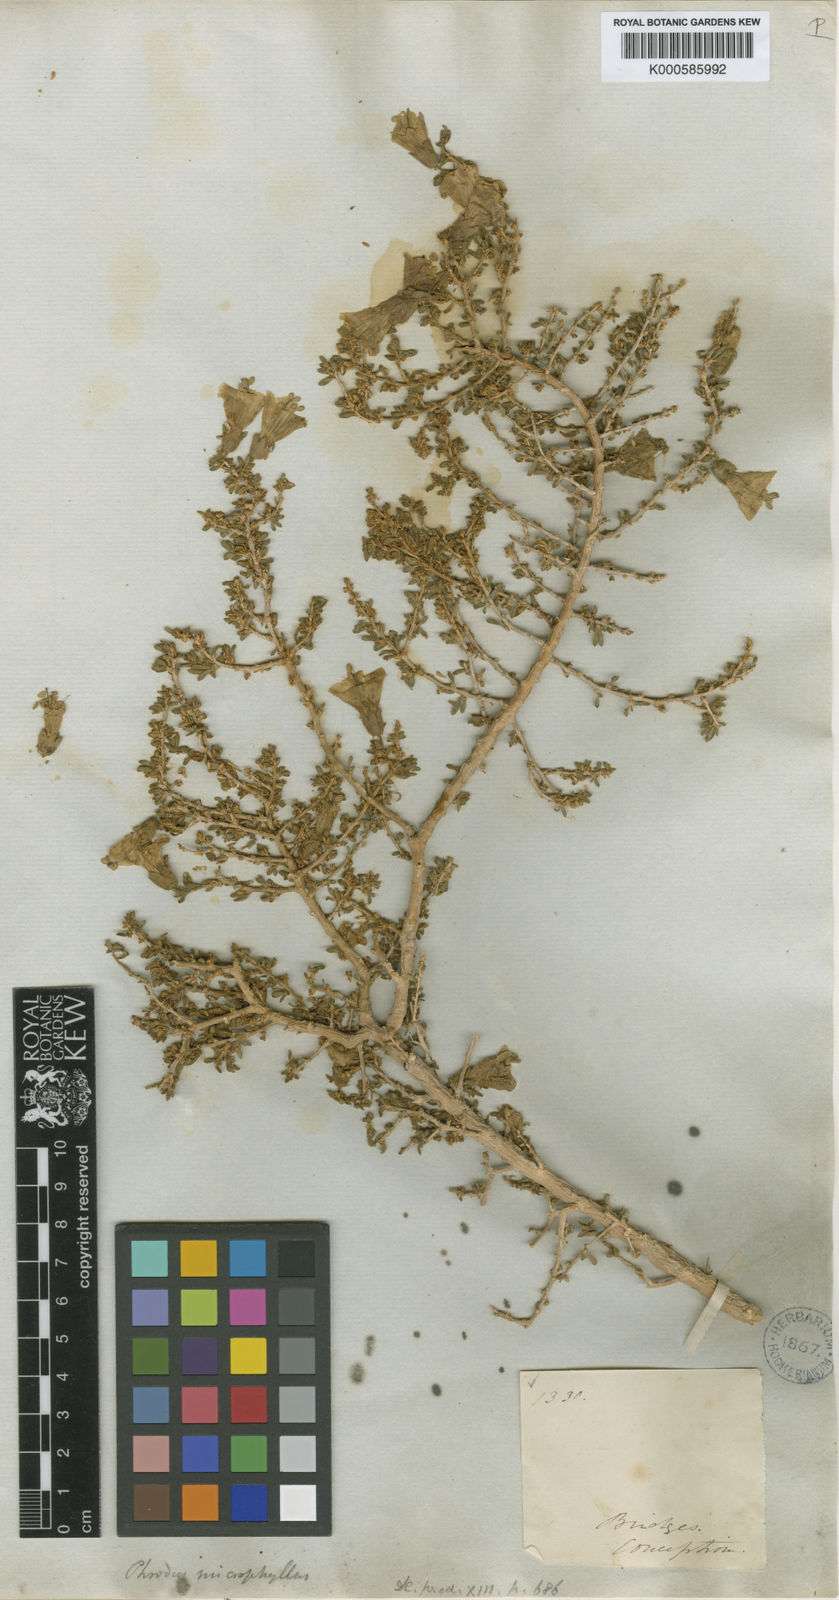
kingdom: Plantae
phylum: Tracheophyta
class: Magnoliopsida
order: Solanales
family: Solanaceae
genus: Lycium
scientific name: Lycium bridgesii
